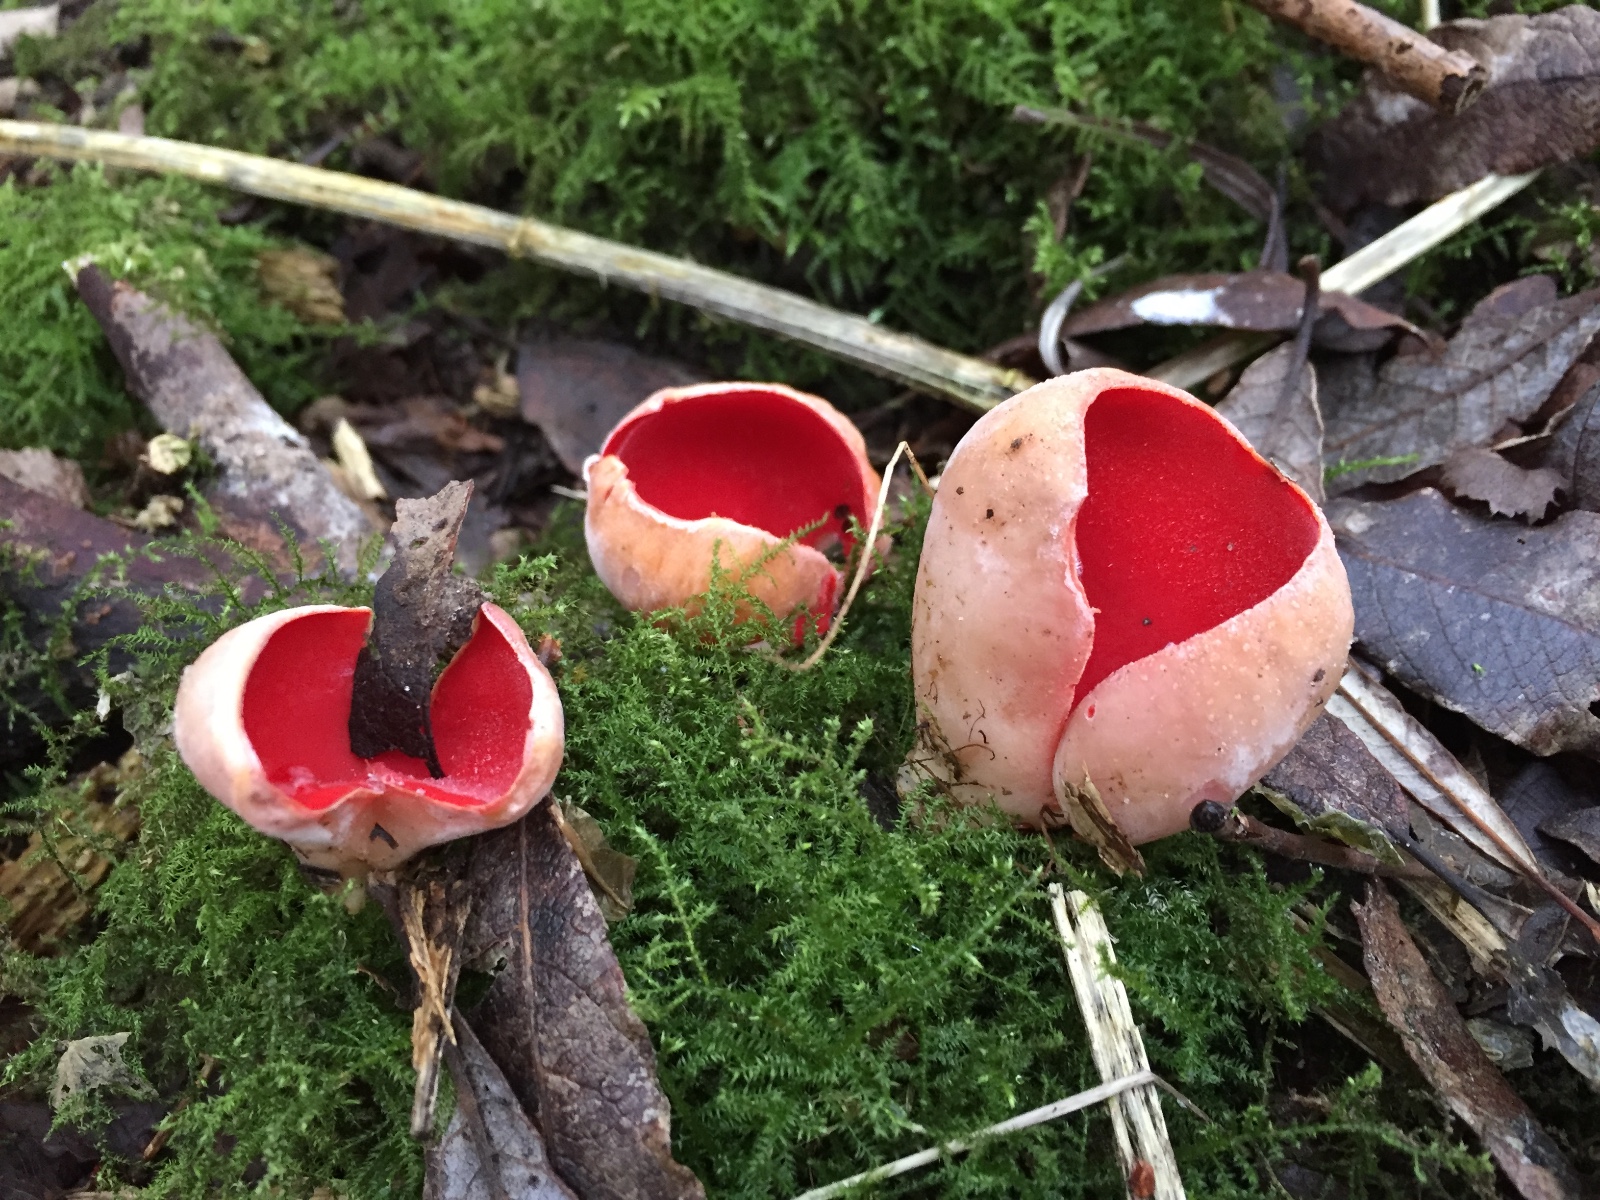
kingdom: Fungi
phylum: Ascomycota
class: Pezizomycetes
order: Pezizales
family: Sarcoscyphaceae
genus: Sarcoscypha
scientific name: Sarcoscypha austriaca
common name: krølhåret pragtbæger
